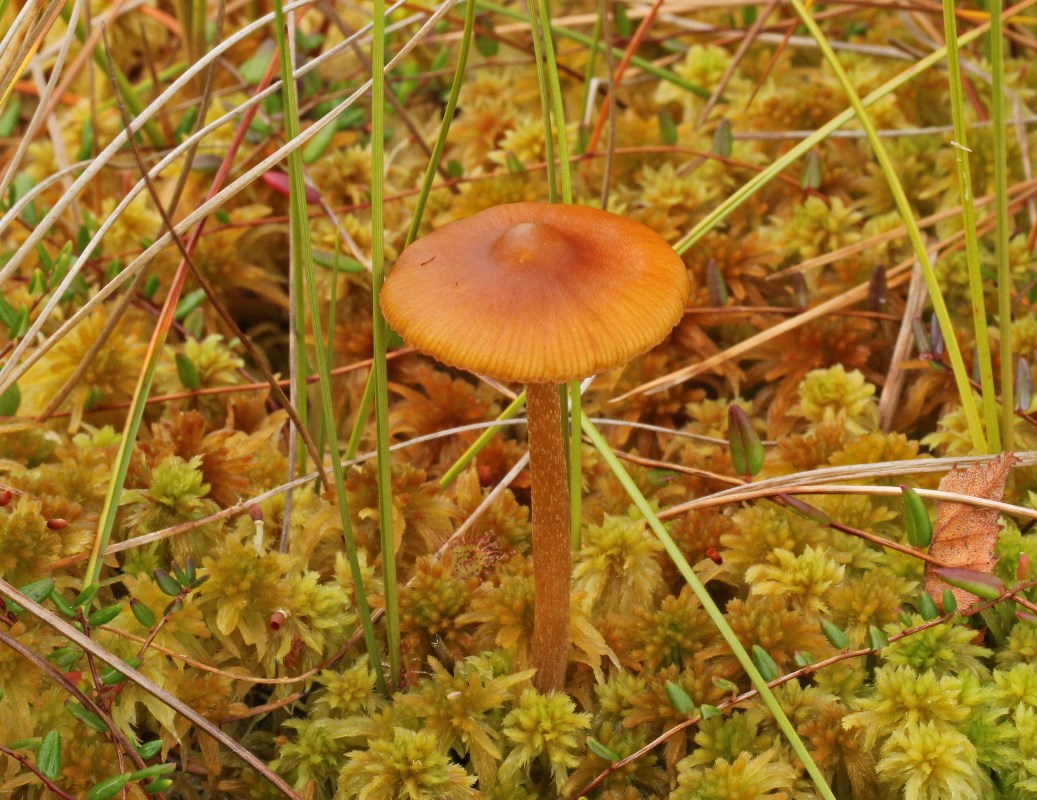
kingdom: Fungi
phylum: Basidiomycota
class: Agaricomycetes
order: Agaricales
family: Hymenogastraceae
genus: Galerina
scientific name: Galerina hybrida
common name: hængesæk-hjelmhat
